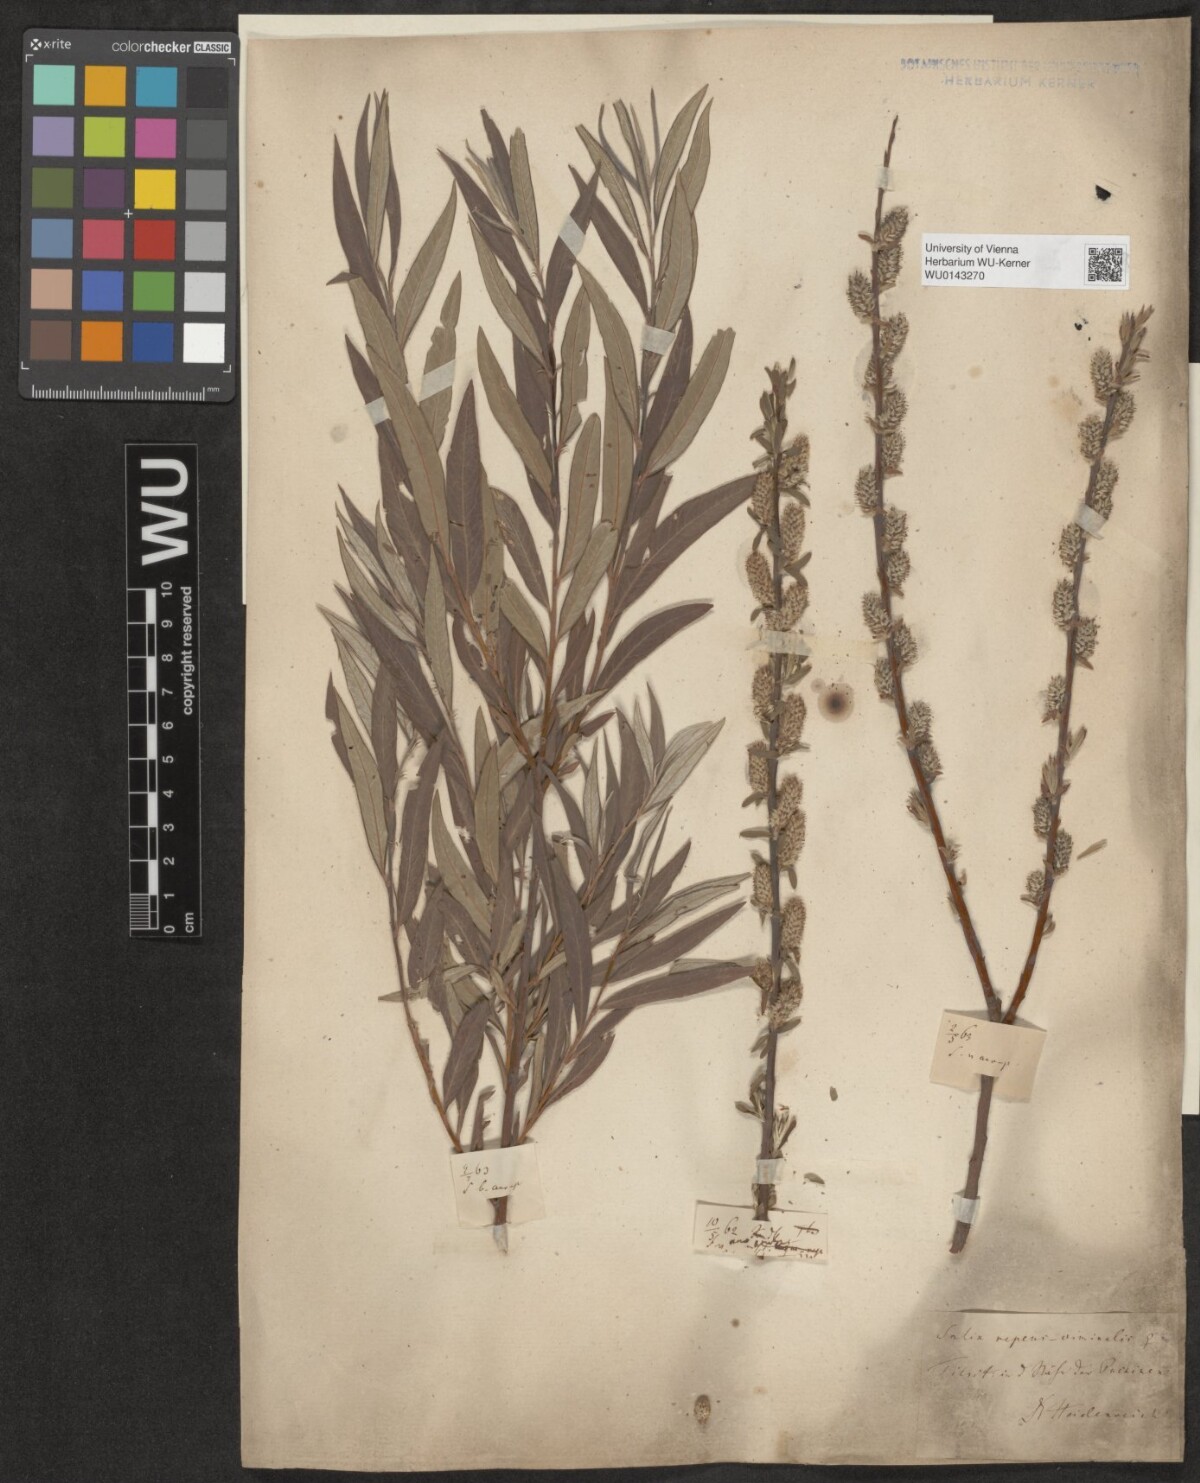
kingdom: Plantae
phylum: Tracheophyta
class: Magnoliopsida
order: Malpighiales
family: Salicaceae
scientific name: Salicaceae
